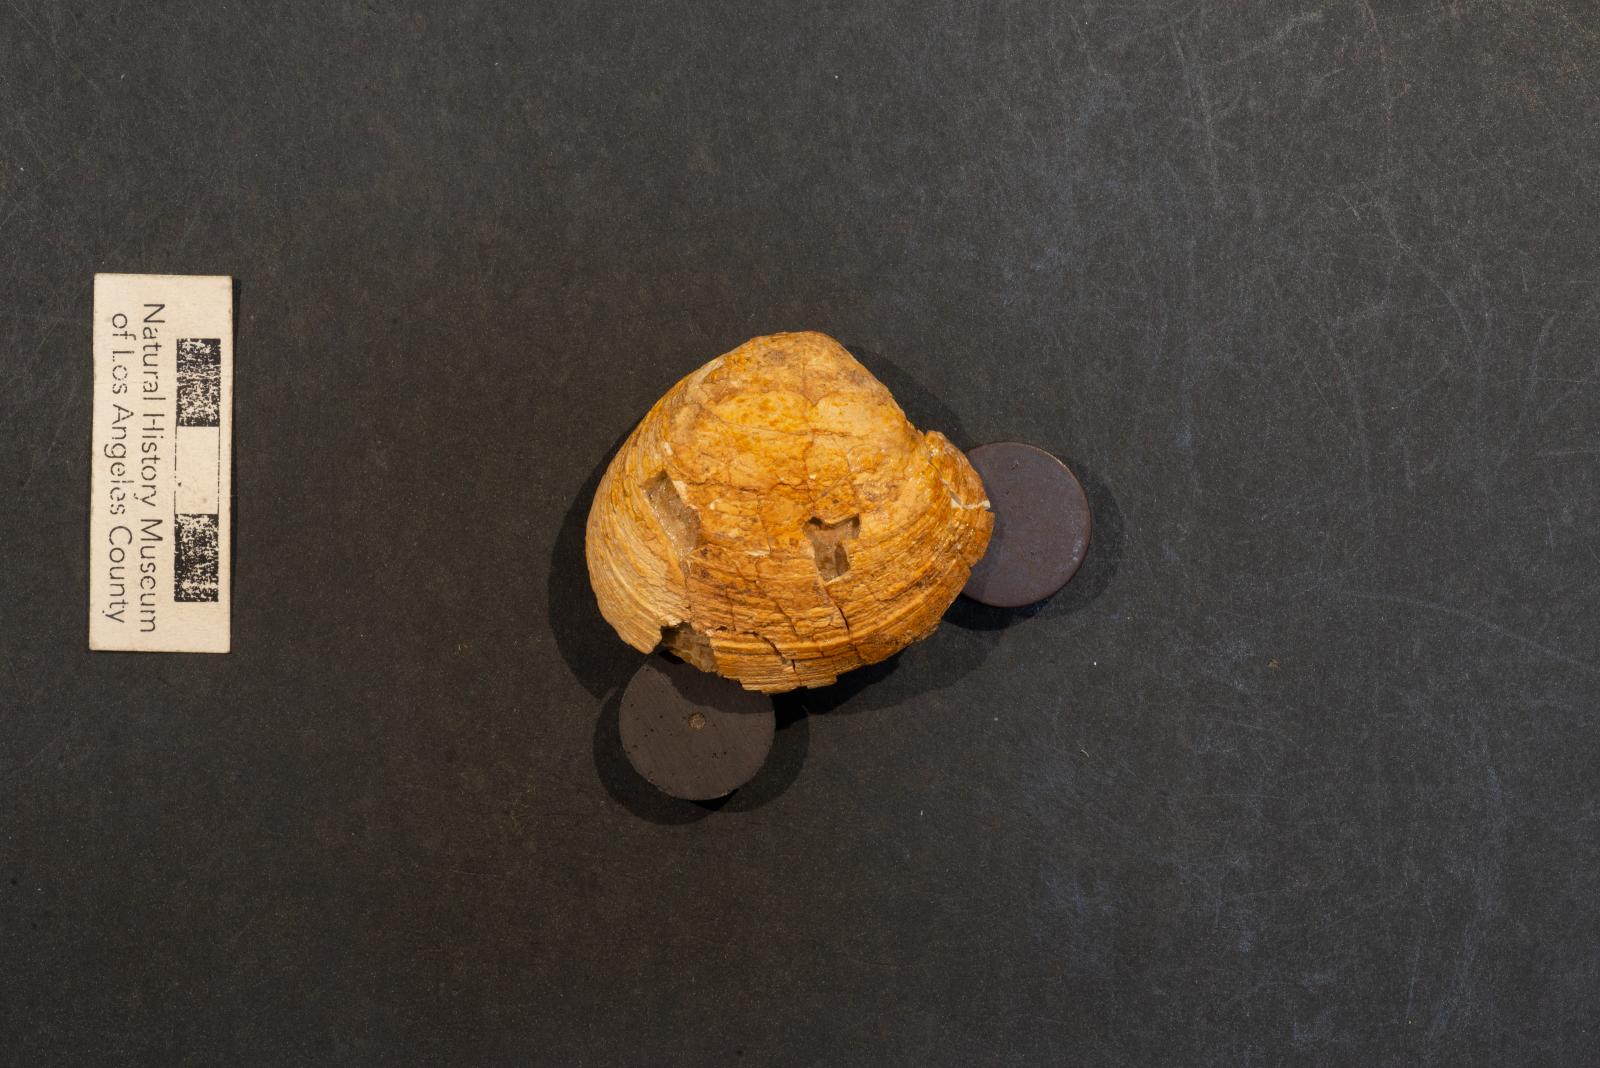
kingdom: Animalia
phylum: Mollusca
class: Bivalvia
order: Venerida
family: Veneridae
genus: Calva
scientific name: Calva Venus varians
